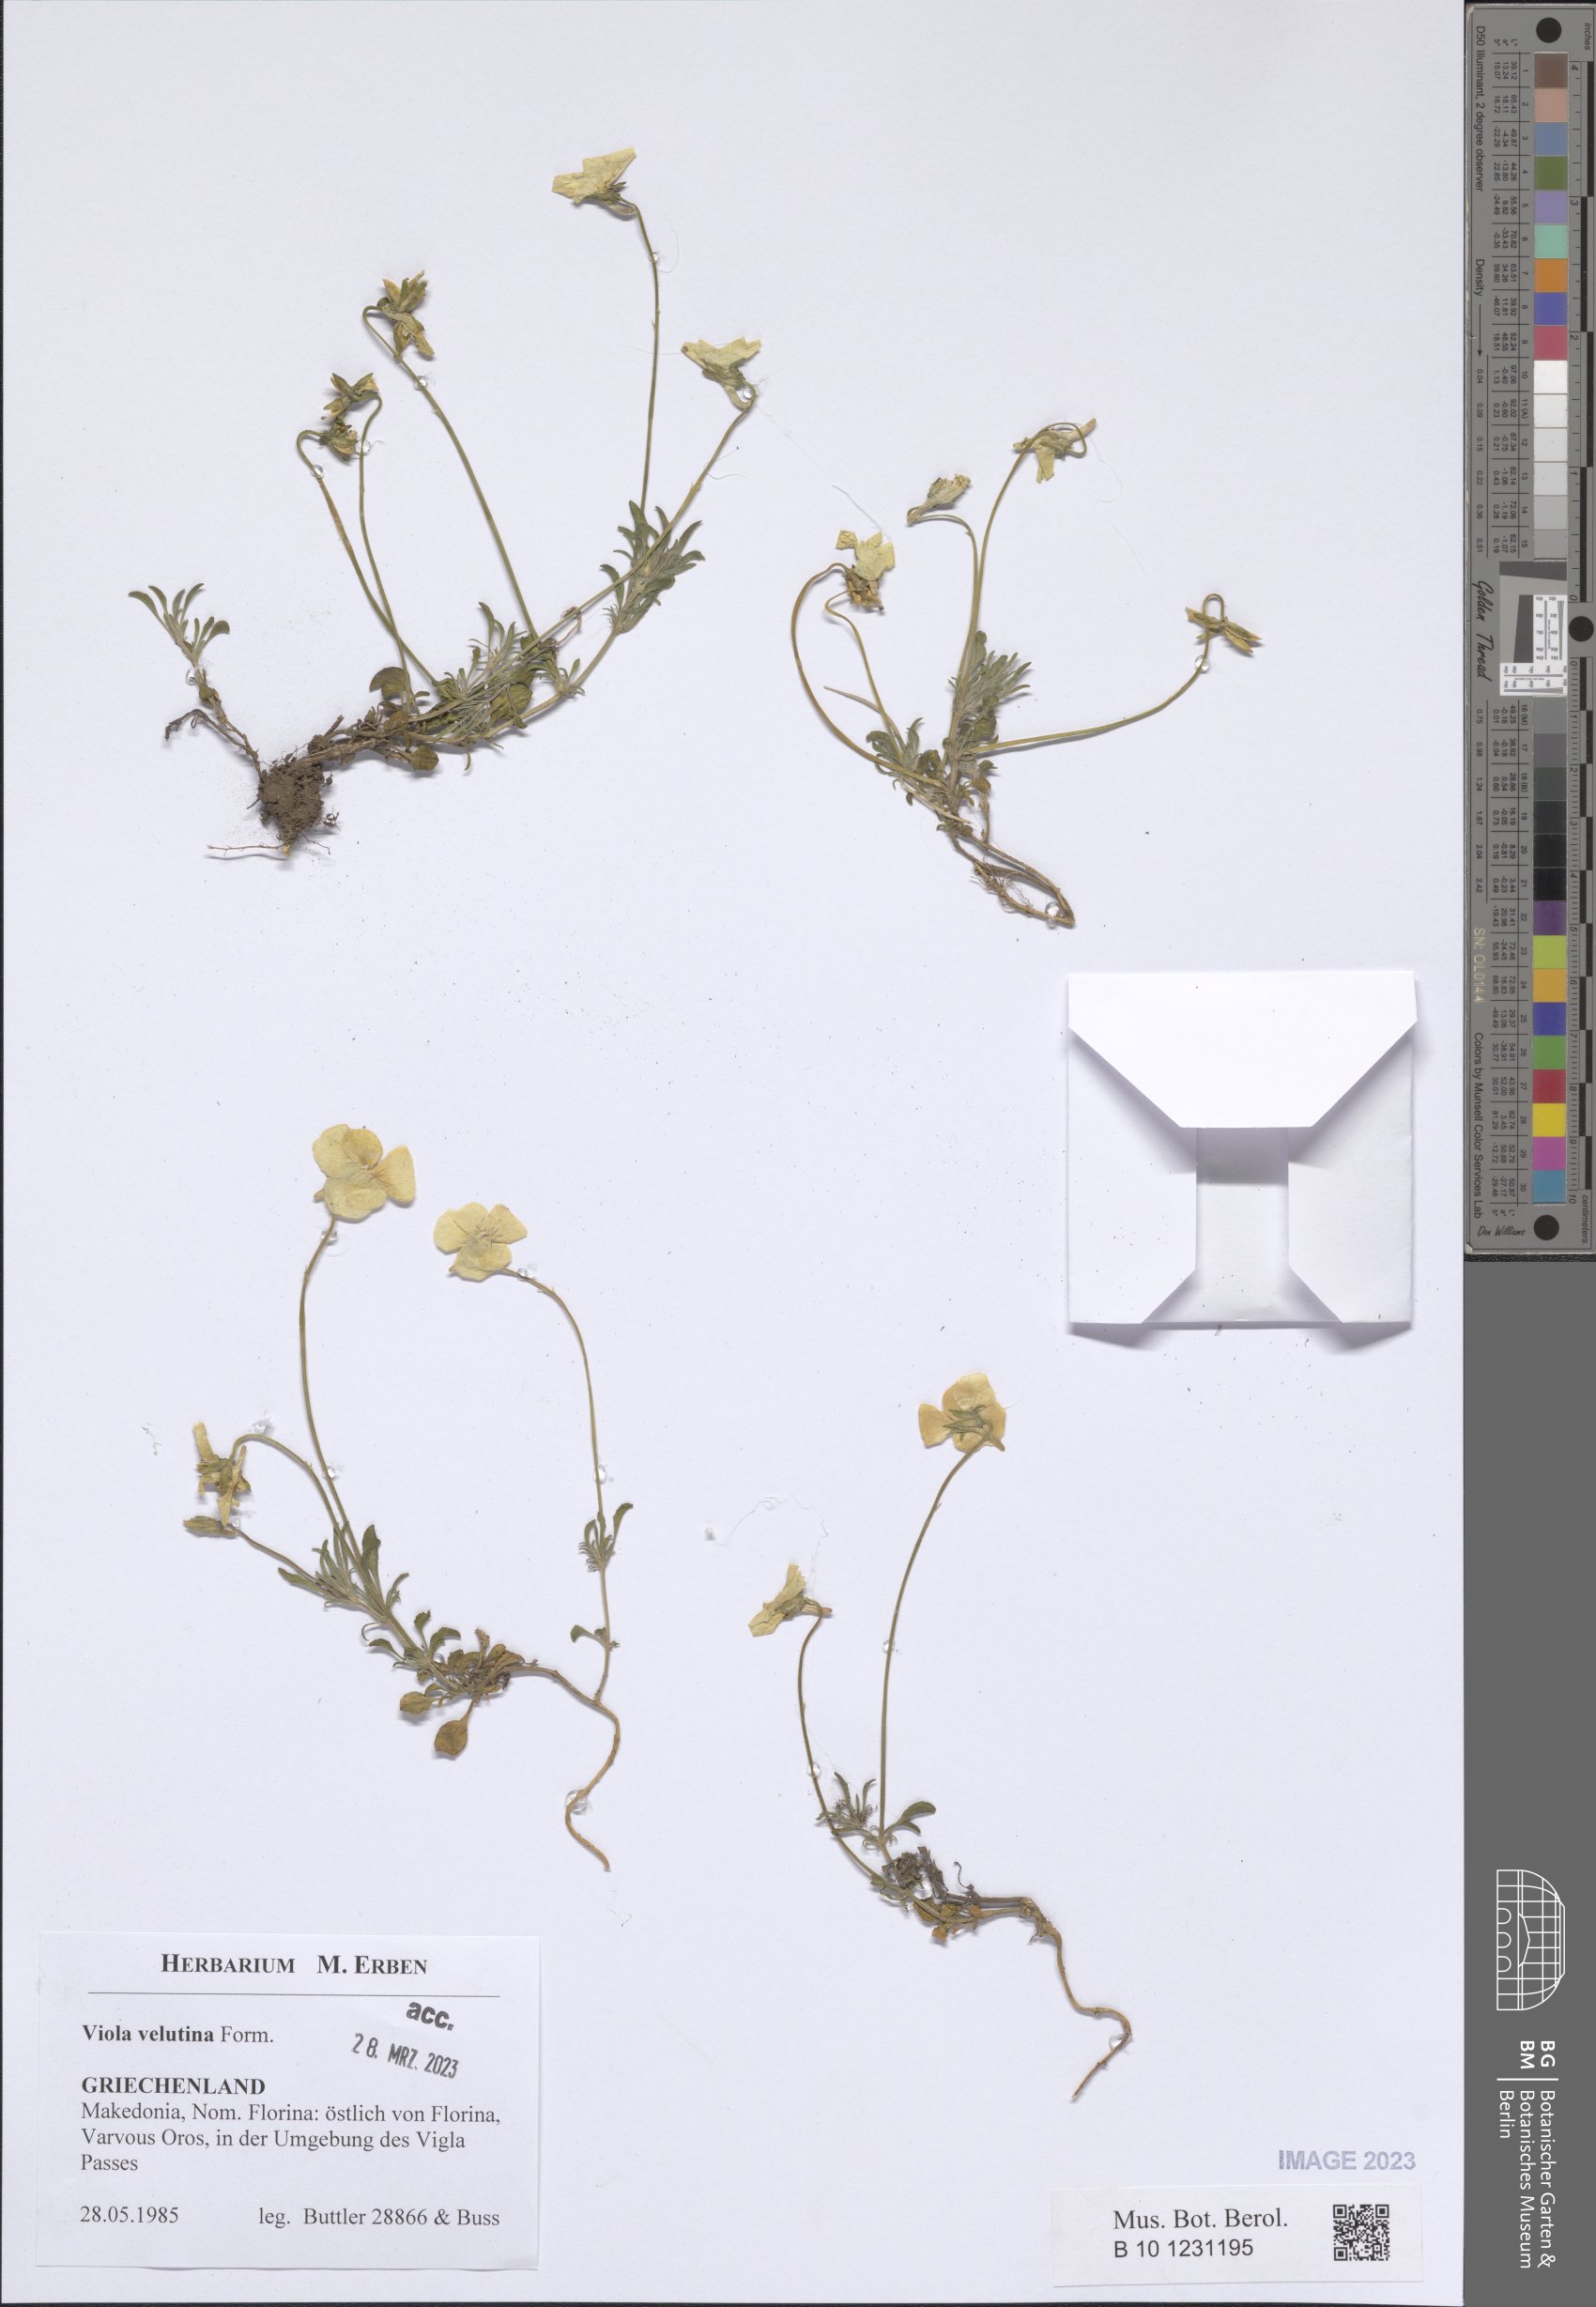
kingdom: Plantae
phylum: Tracheophyta
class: Magnoliopsida
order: Malpighiales
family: Violaceae
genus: Viola
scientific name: Viola velutina
